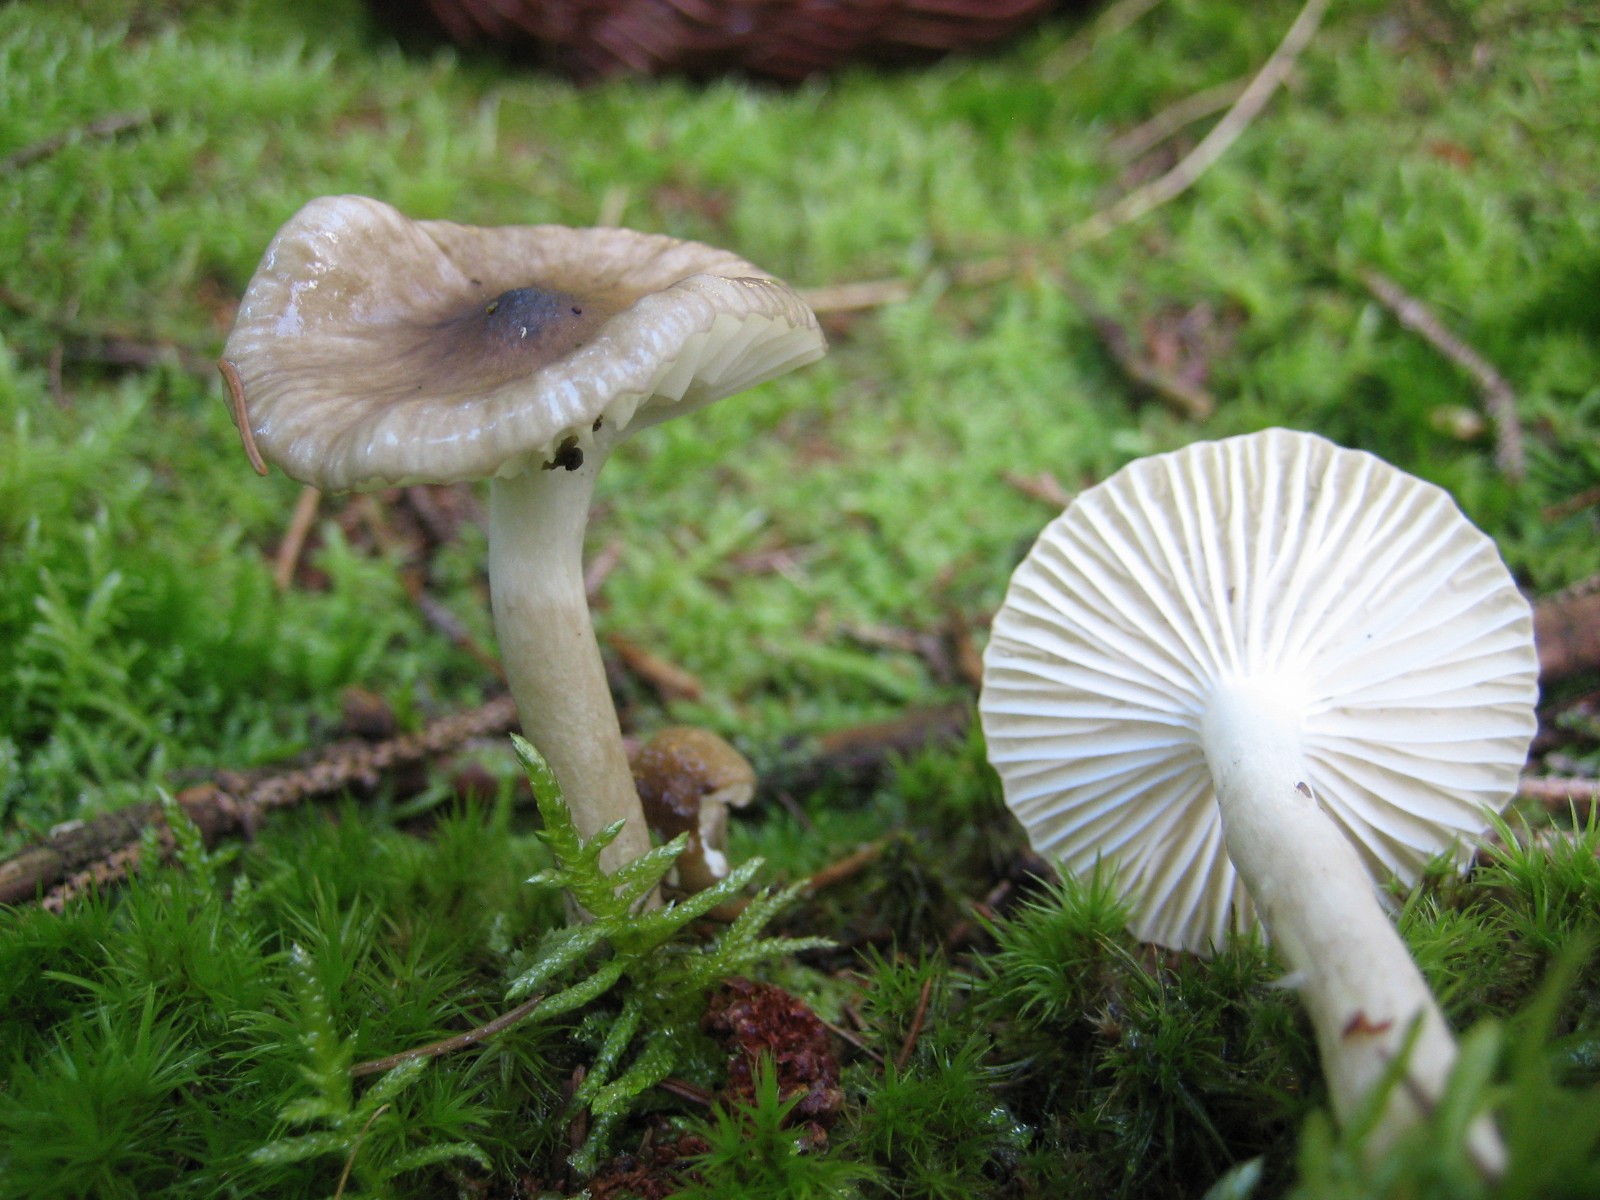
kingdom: Fungi
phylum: Basidiomycota
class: Agaricomycetes
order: Agaricales
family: Hygrophoraceae
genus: Hygrophorus
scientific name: Hygrophorus olivaceoalbus
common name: hvidbrun sneglehat
